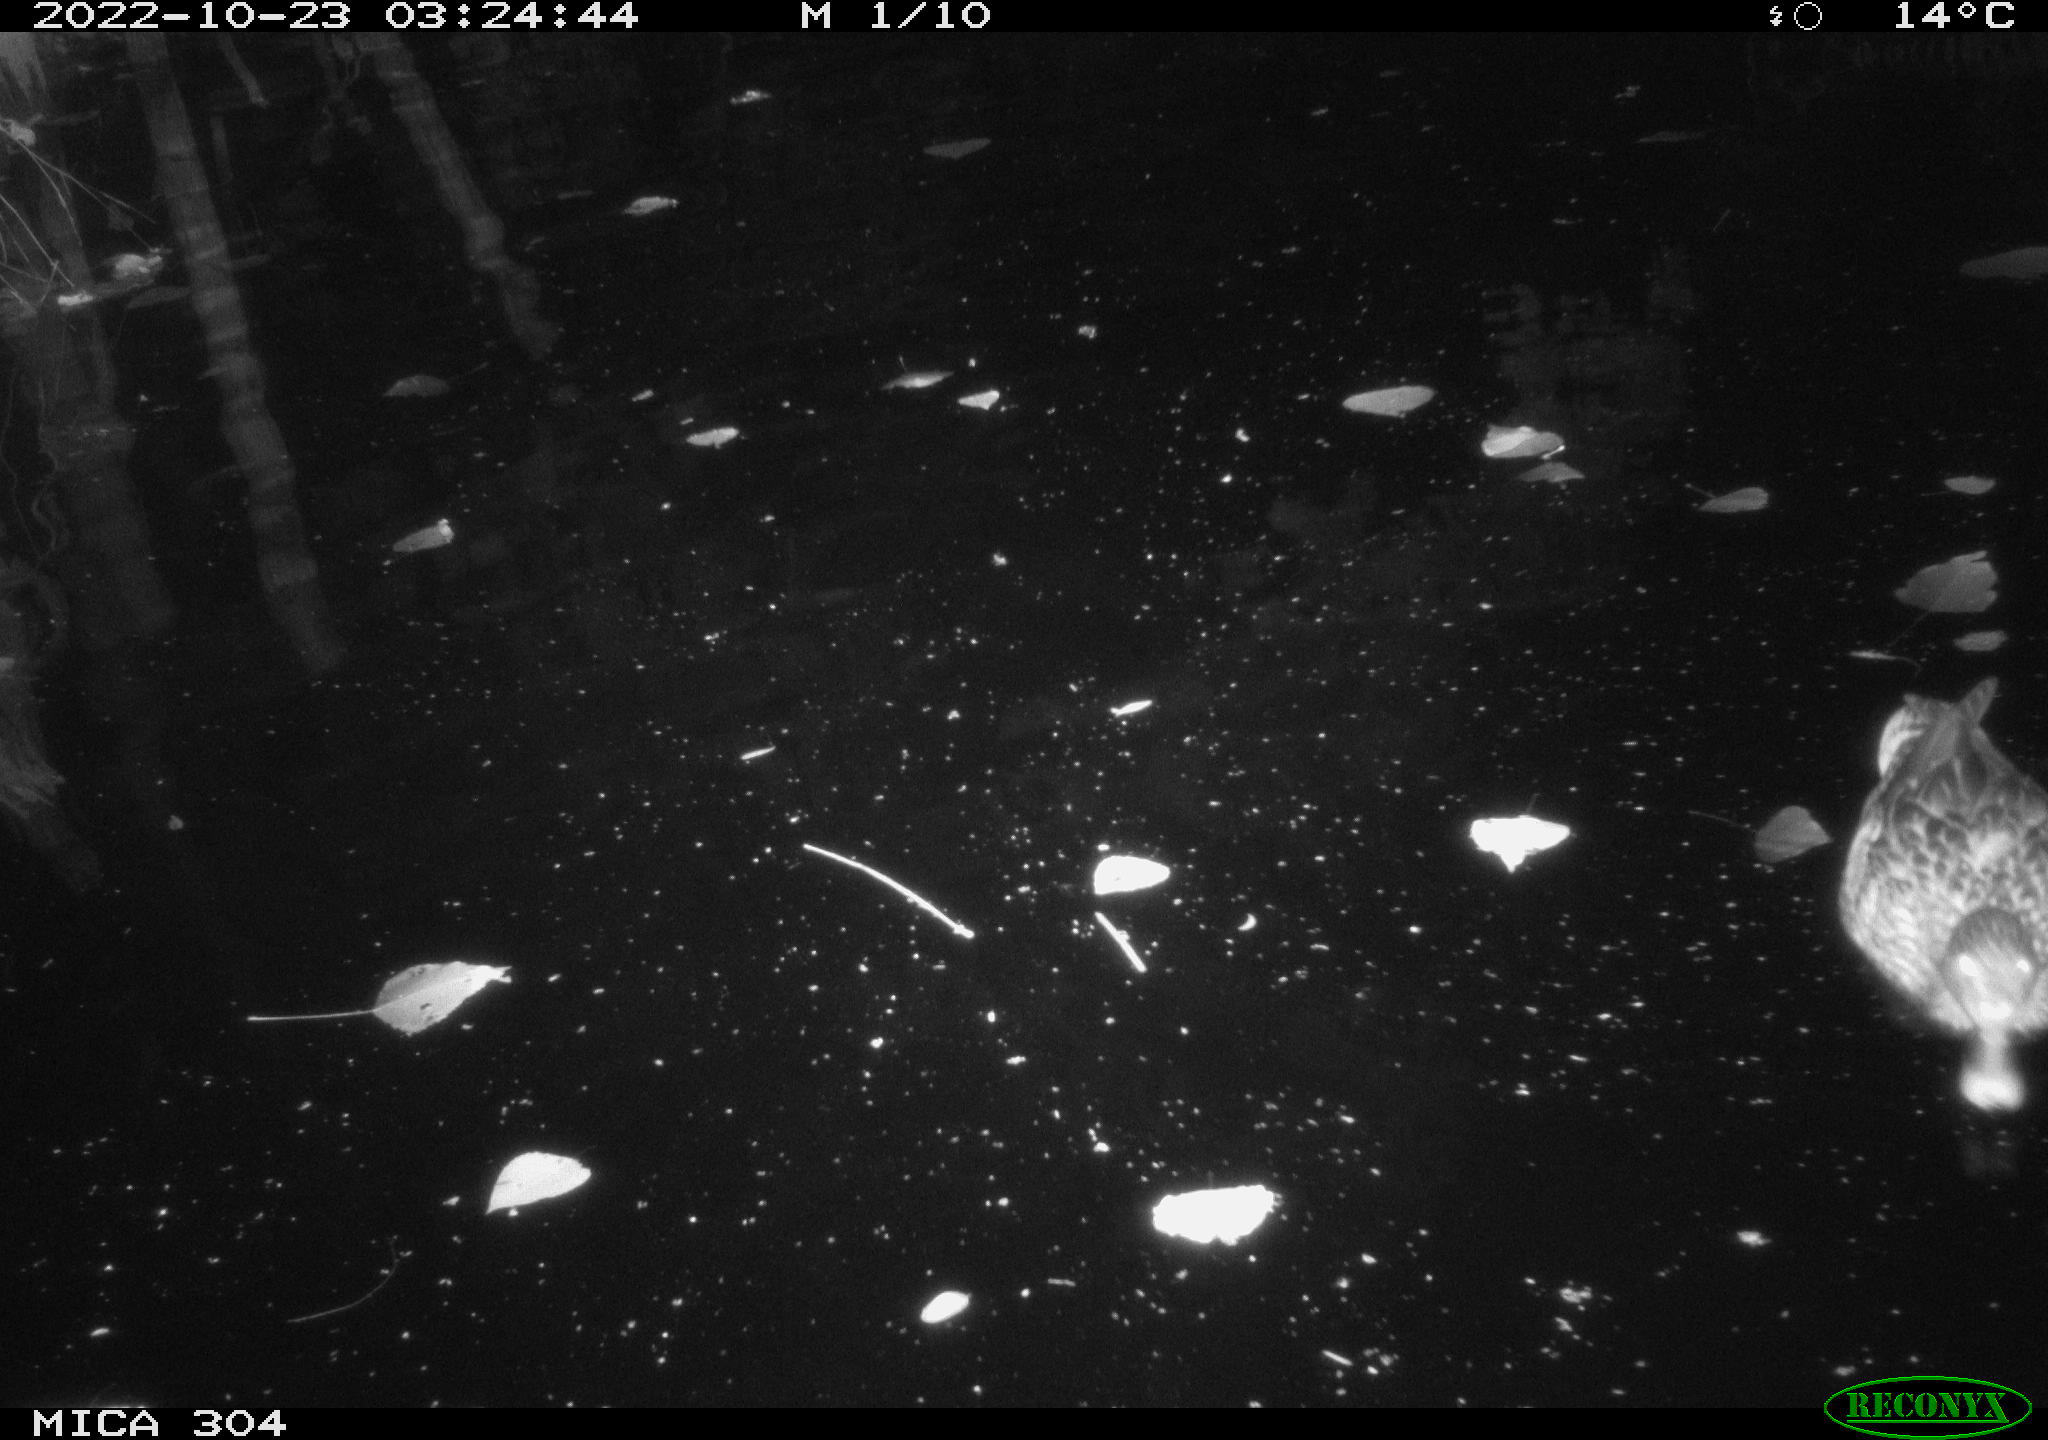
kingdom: Animalia
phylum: Chordata
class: Aves
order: Anseriformes
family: Anatidae
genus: Anas
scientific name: Anas
